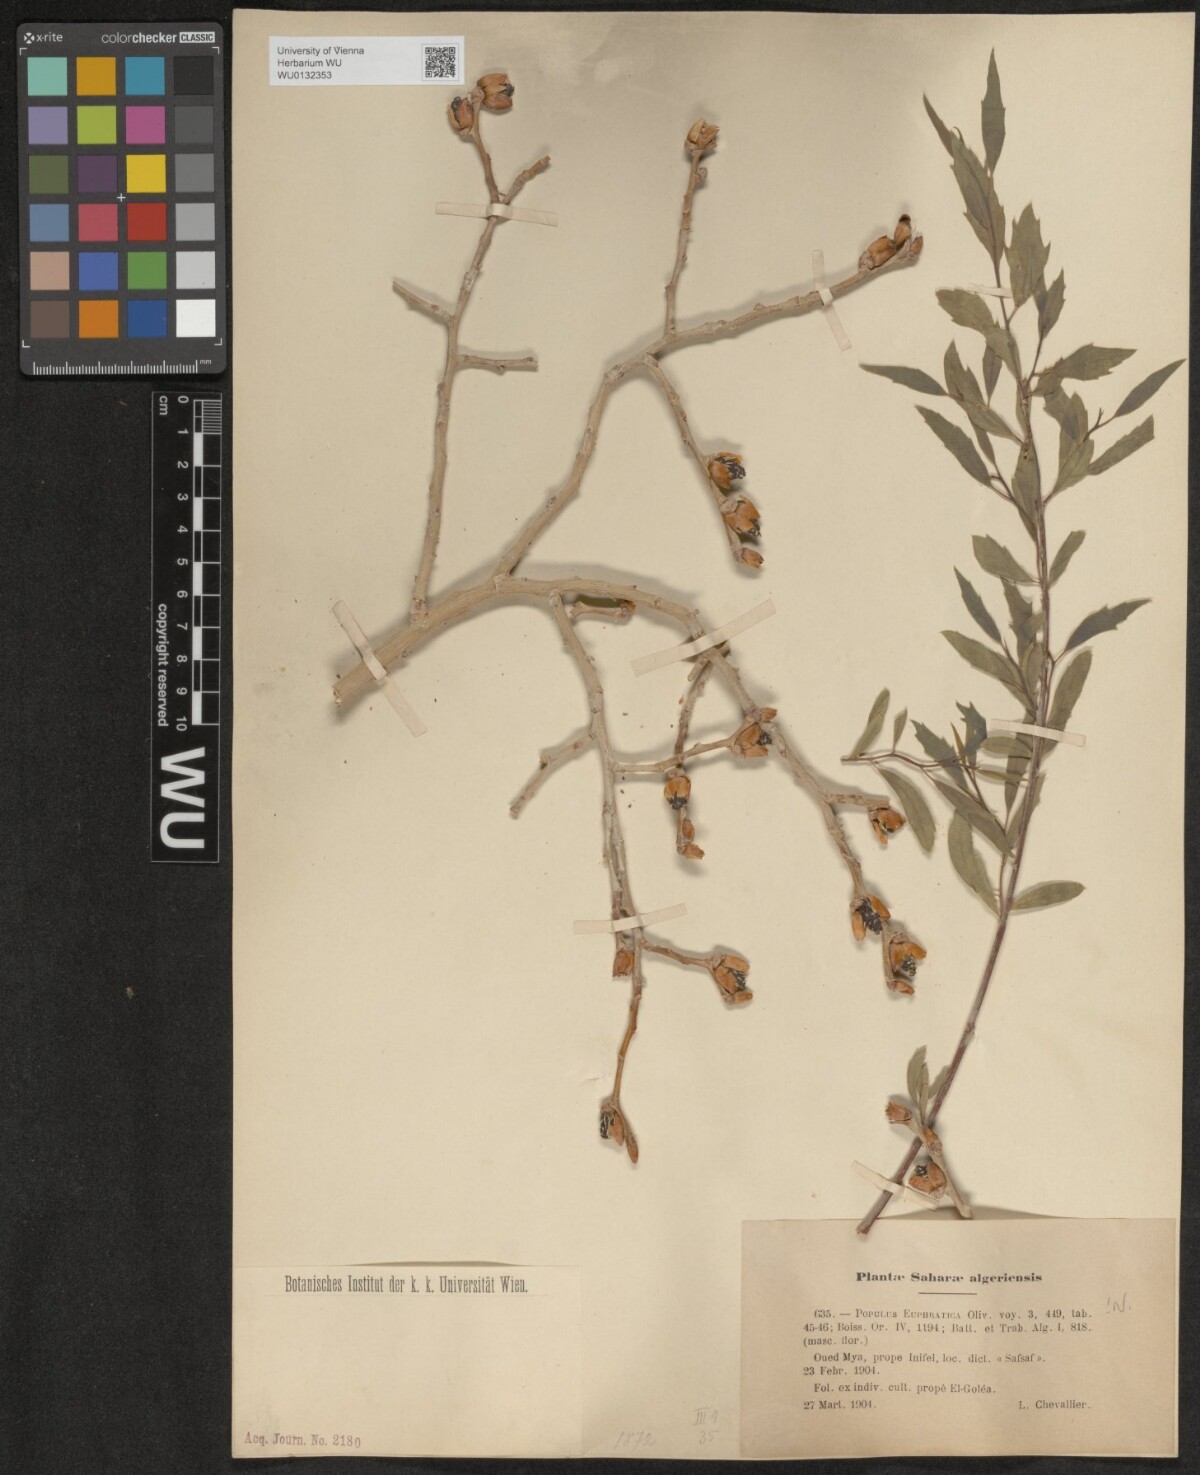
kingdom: Plantae
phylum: Tracheophyta
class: Magnoliopsida
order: Malpighiales
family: Salicaceae
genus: Populus
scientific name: Populus euphratica
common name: Euphrates poplar
